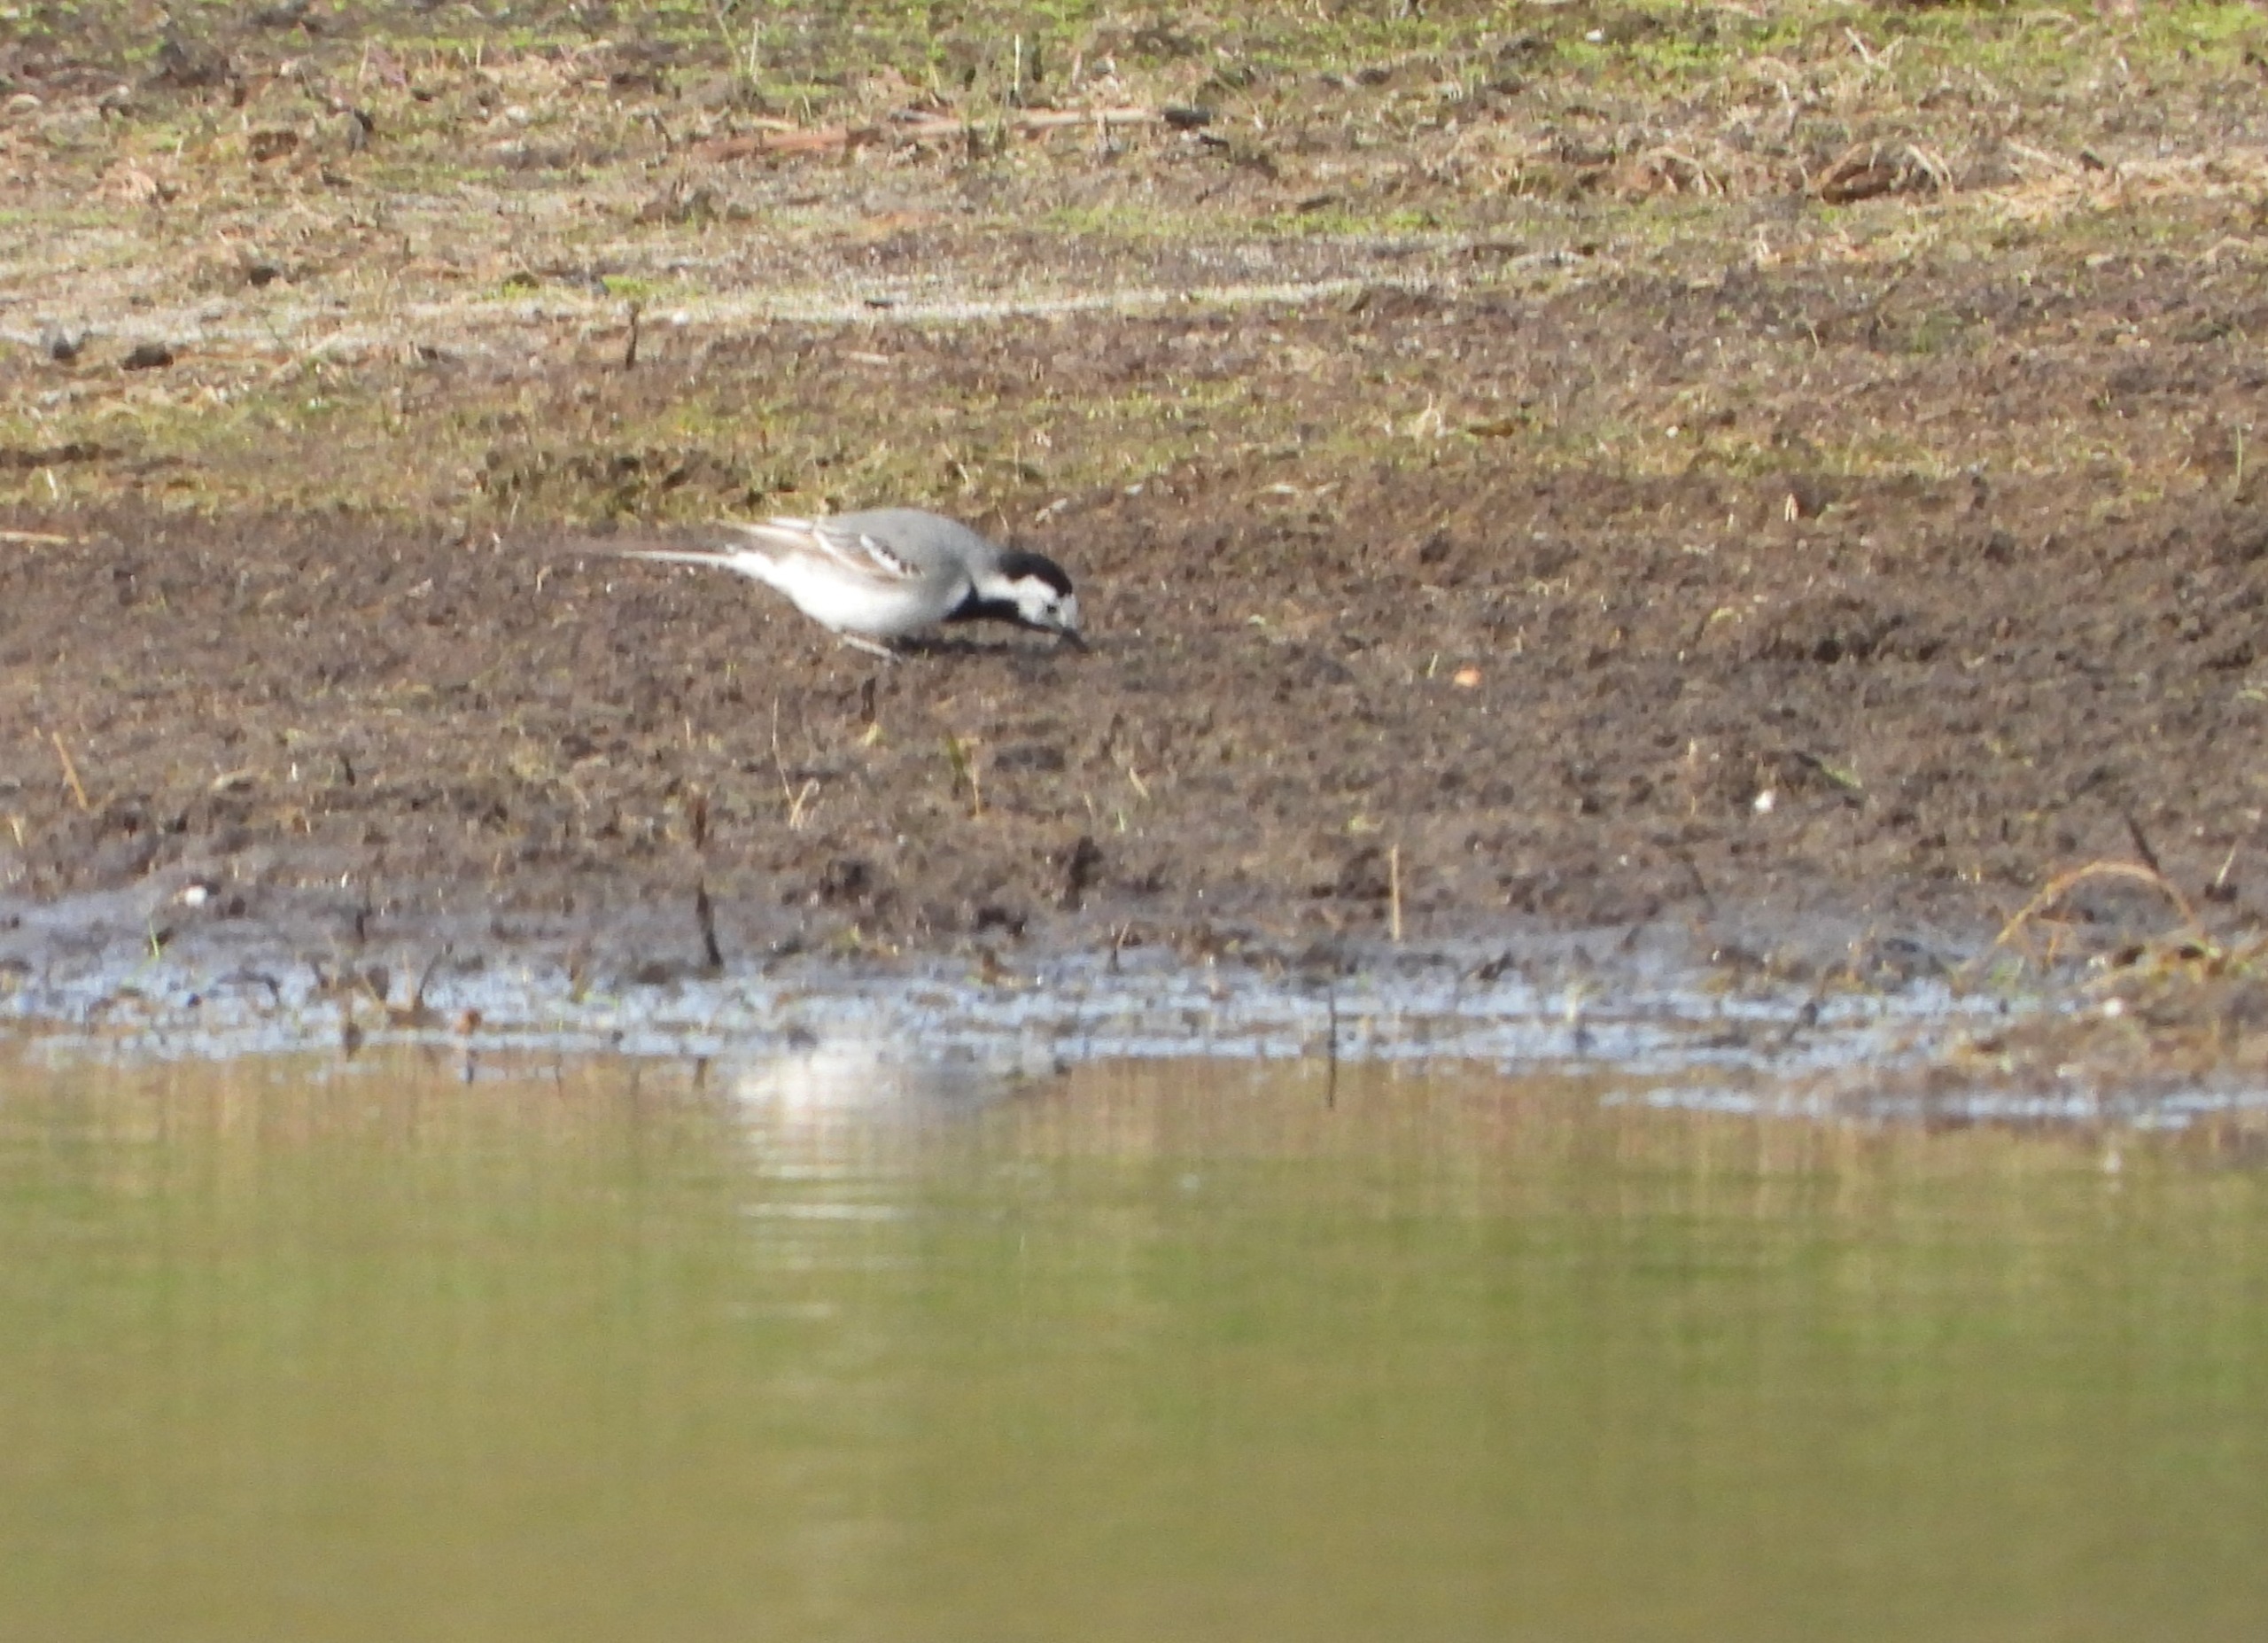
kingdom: Animalia
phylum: Chordata
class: Aves
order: Passeriformes
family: Motacillidae
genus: Motacilla
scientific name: Motacilla alba
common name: Hvid vipstjert
